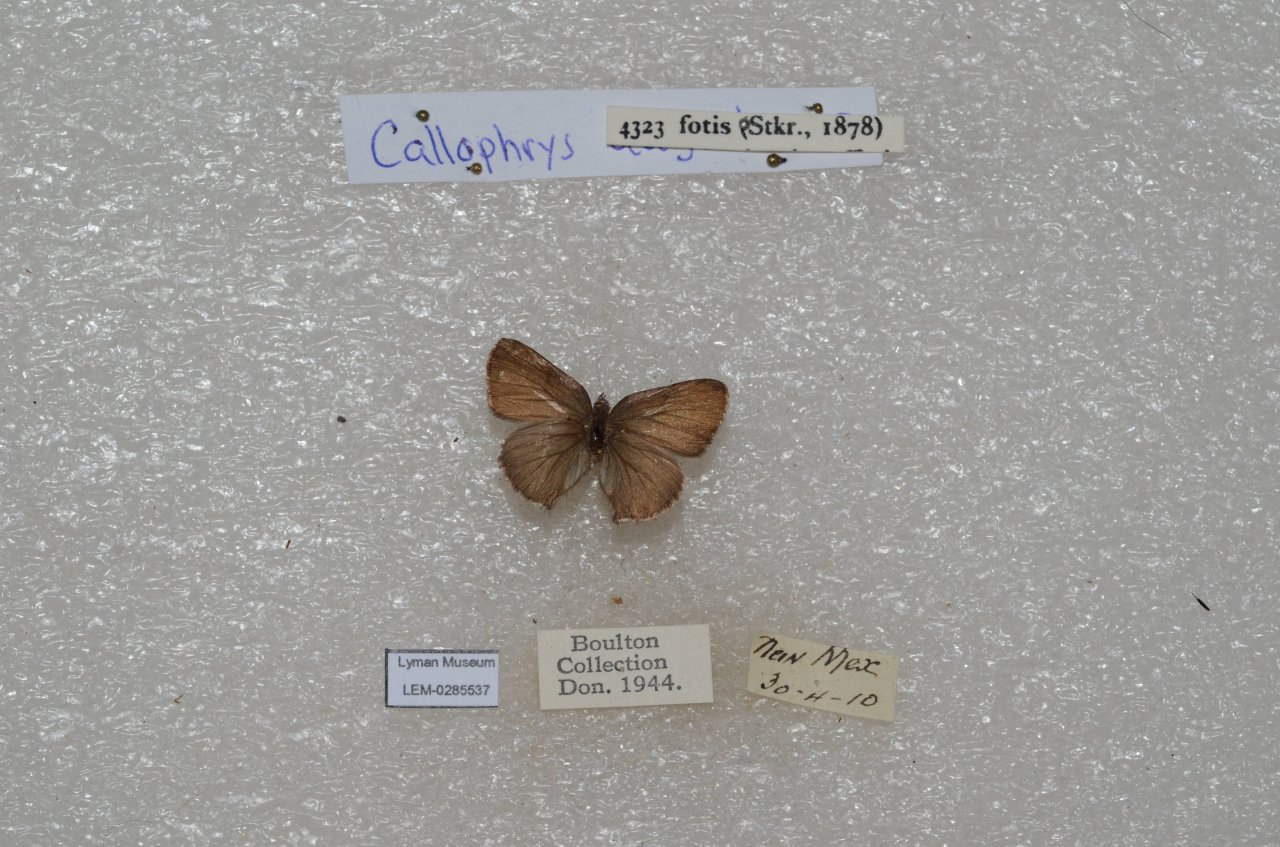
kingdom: Animalia
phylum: Arthropoda
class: Insecta
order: Lepidoptera
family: Lycaenidae
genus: Callophrys
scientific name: Callophrys fotis
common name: Desert Elfin
